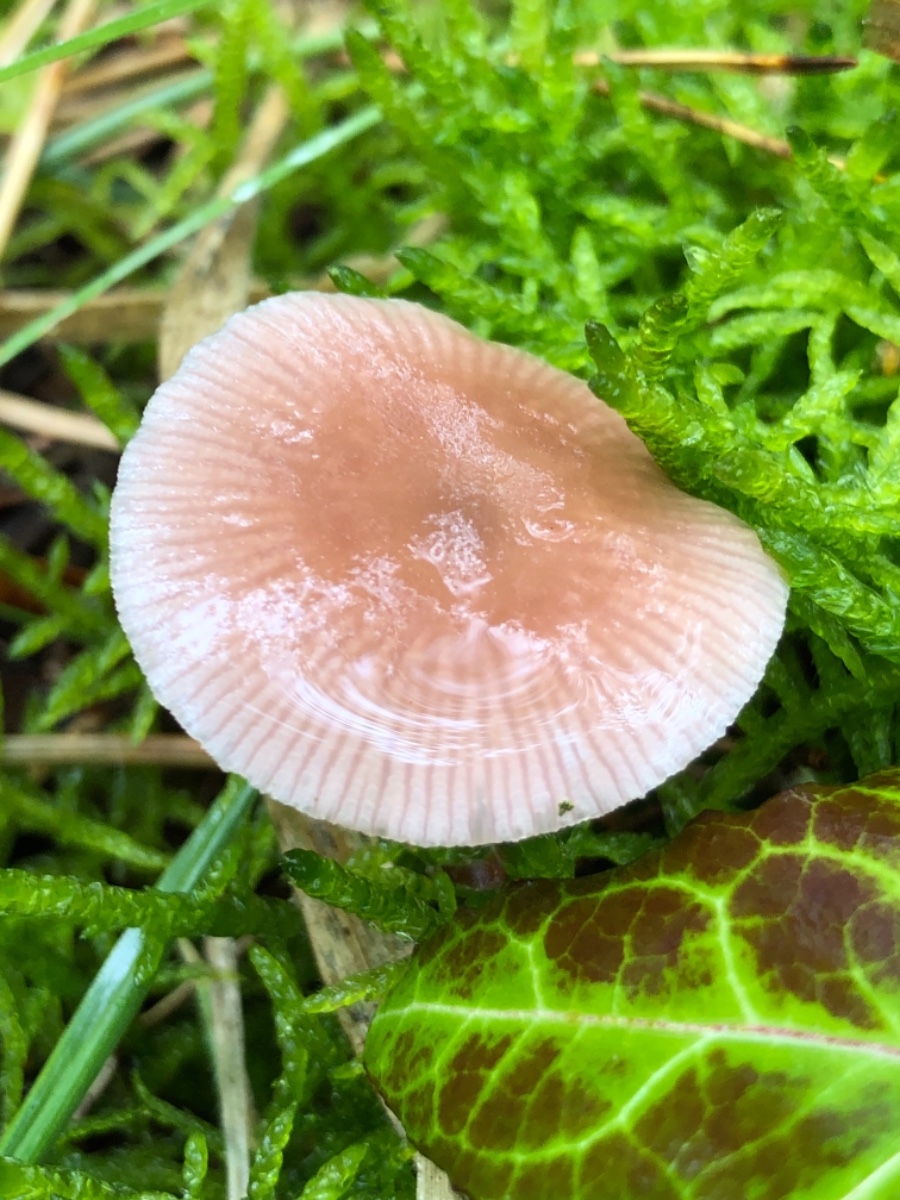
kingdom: Fungi
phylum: Basidiomycota
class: Agaricomycetes
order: Agaricales
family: Mycenaceae
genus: Mycena
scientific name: Mycena
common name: huesvamp
